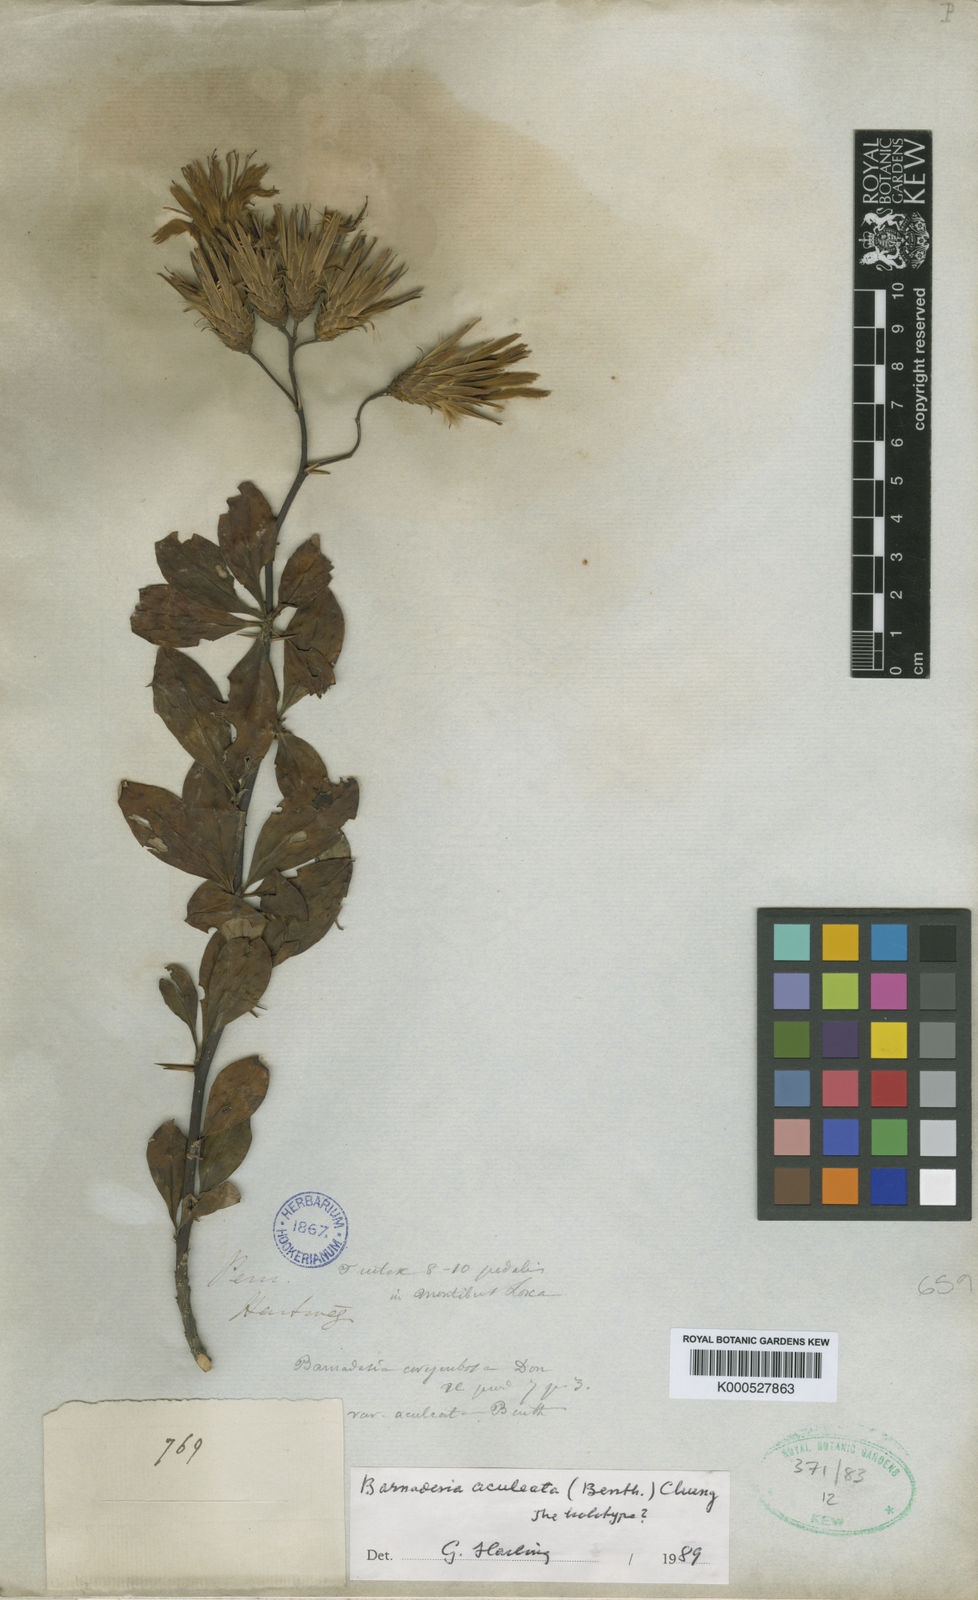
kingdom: Plantae
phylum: Tracheophyta
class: Magnoliopsida
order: Asterales
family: Asteraceae
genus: Barnadesia
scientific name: Barnadesia aculeata
